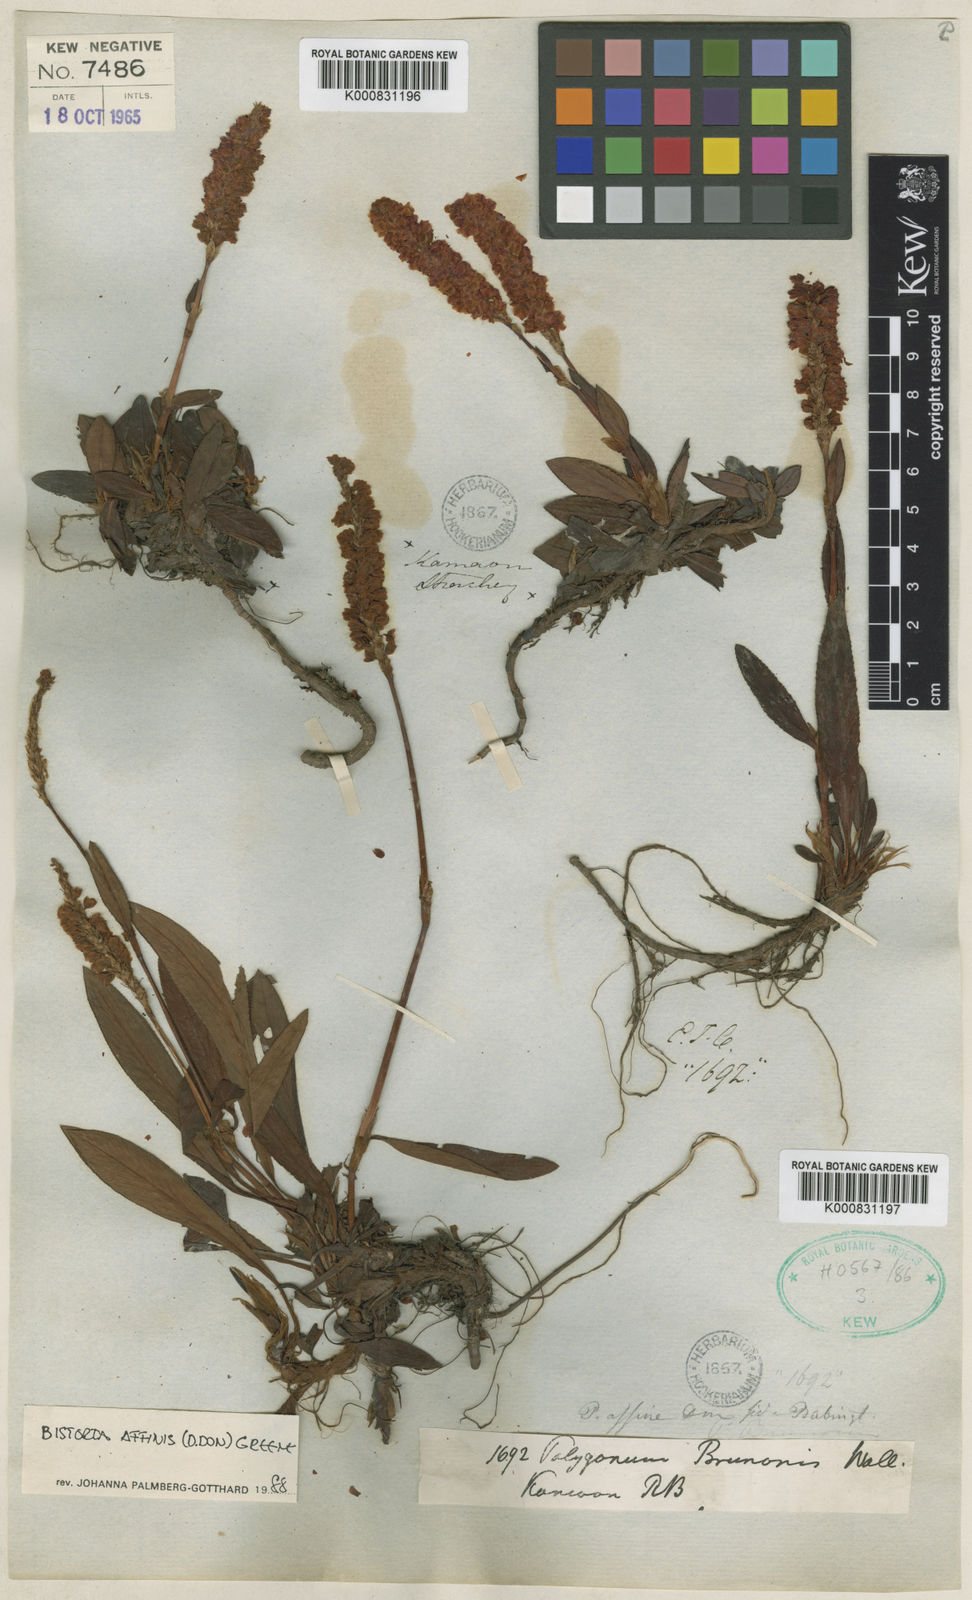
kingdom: Plantae
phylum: Tracheophyta
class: Magnoliopsida
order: Caryophyllales
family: Polygonaceae
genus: Bistorta
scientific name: Bistorta affinis
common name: Himalayan fleeceflower
